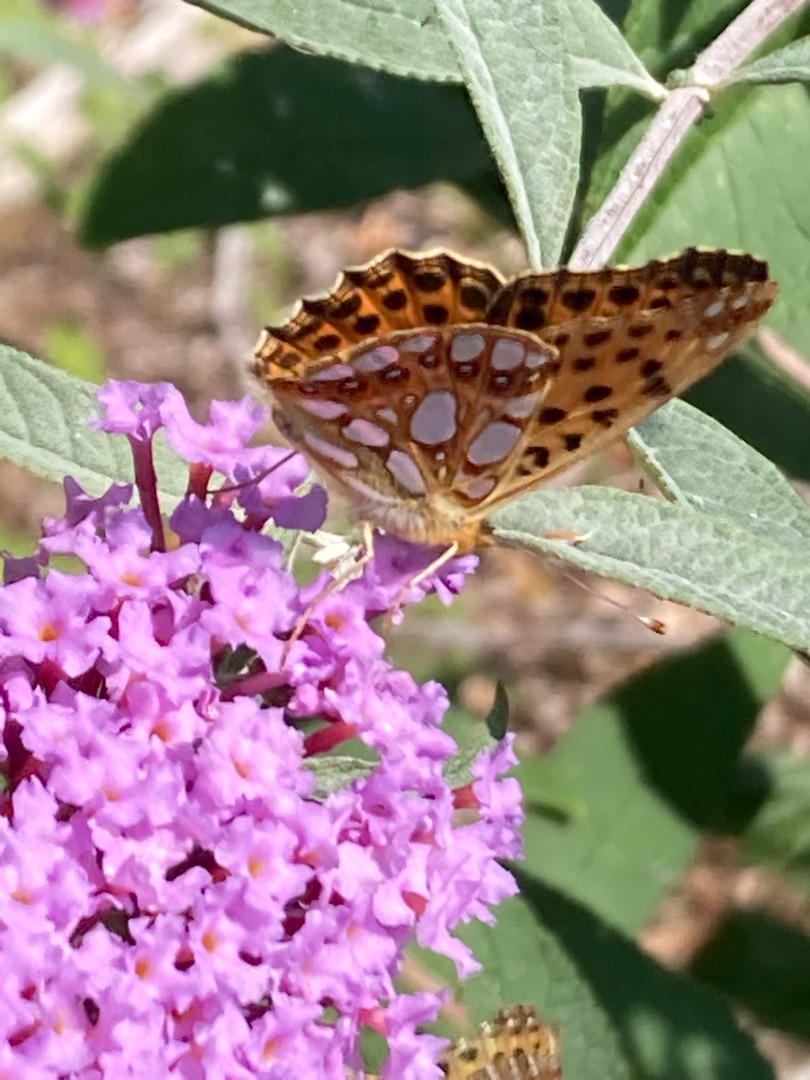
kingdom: Animalia
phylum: Arthropoda
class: Insecta
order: Lepidoptera
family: Nymphalidae
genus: Issoria
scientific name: Issoria lathonia
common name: Storplettet perlemorsommerfugl
